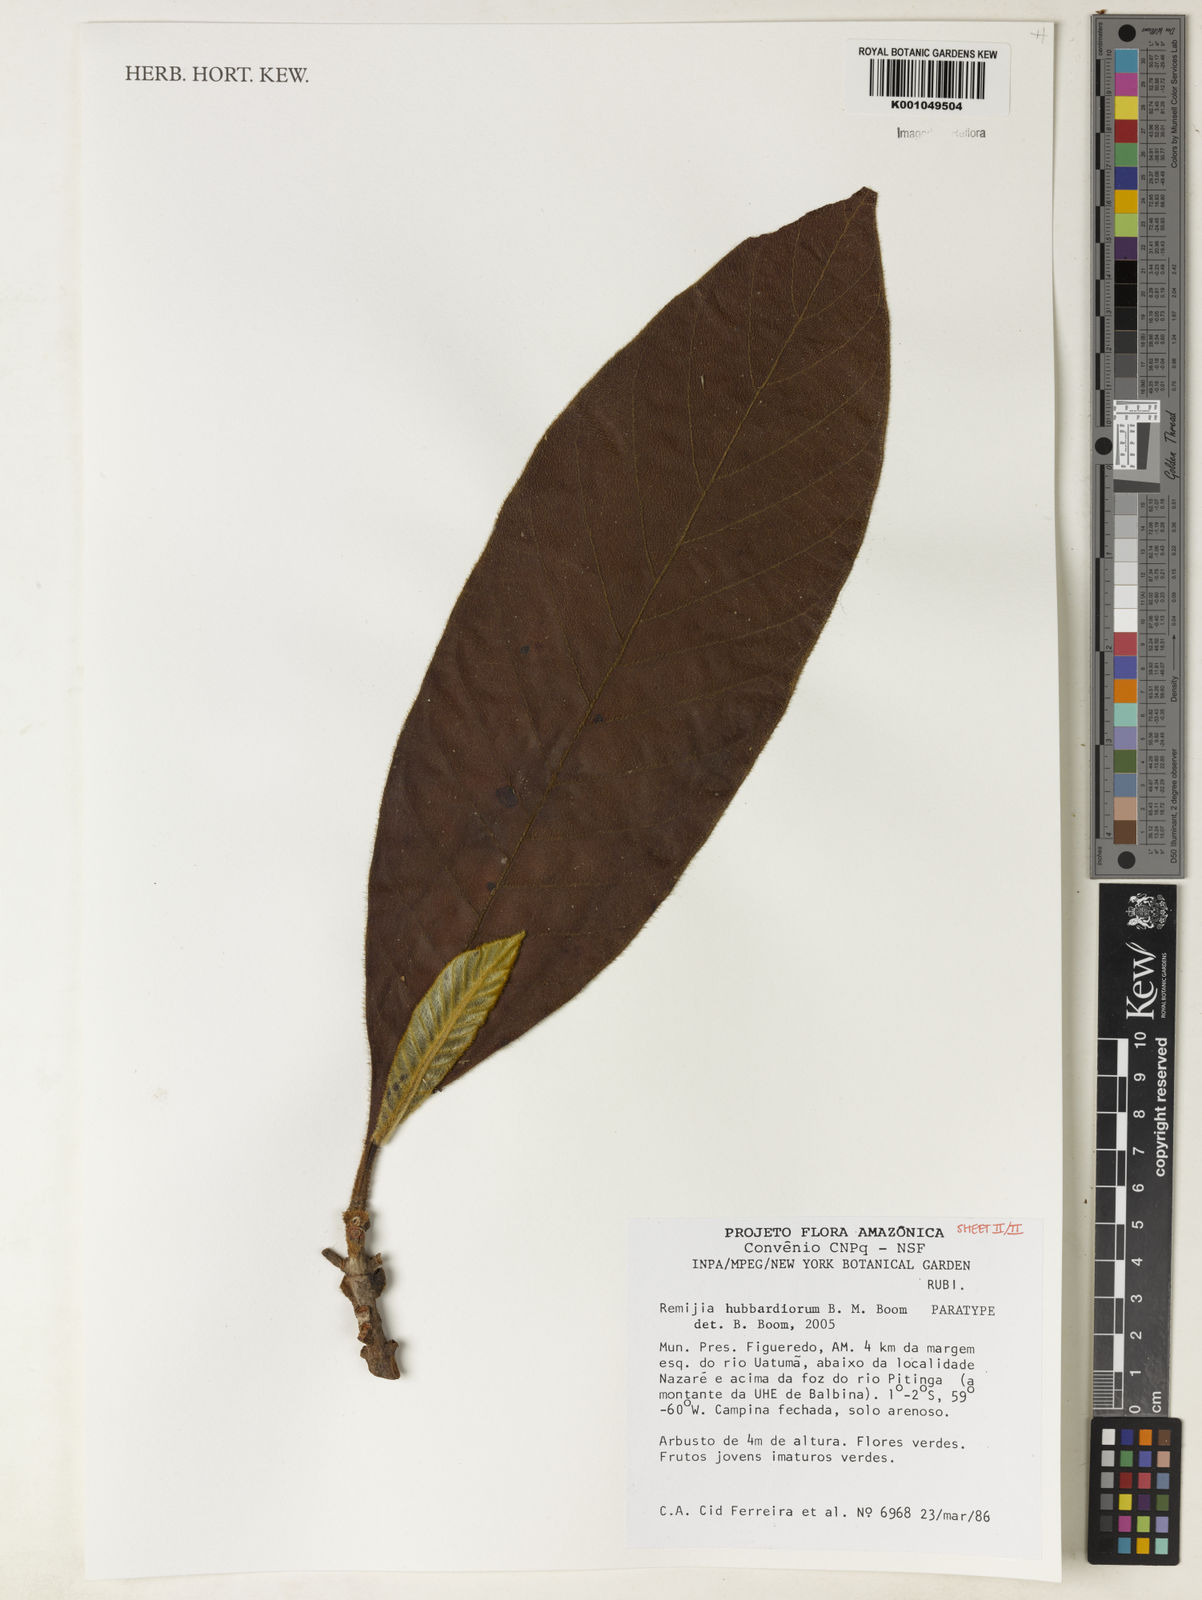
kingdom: Plantae
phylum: Tracheophyta
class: Magnoliopsida
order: Gentianales
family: Rubiaceae
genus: Remijia
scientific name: Remijia hubbardiorum
